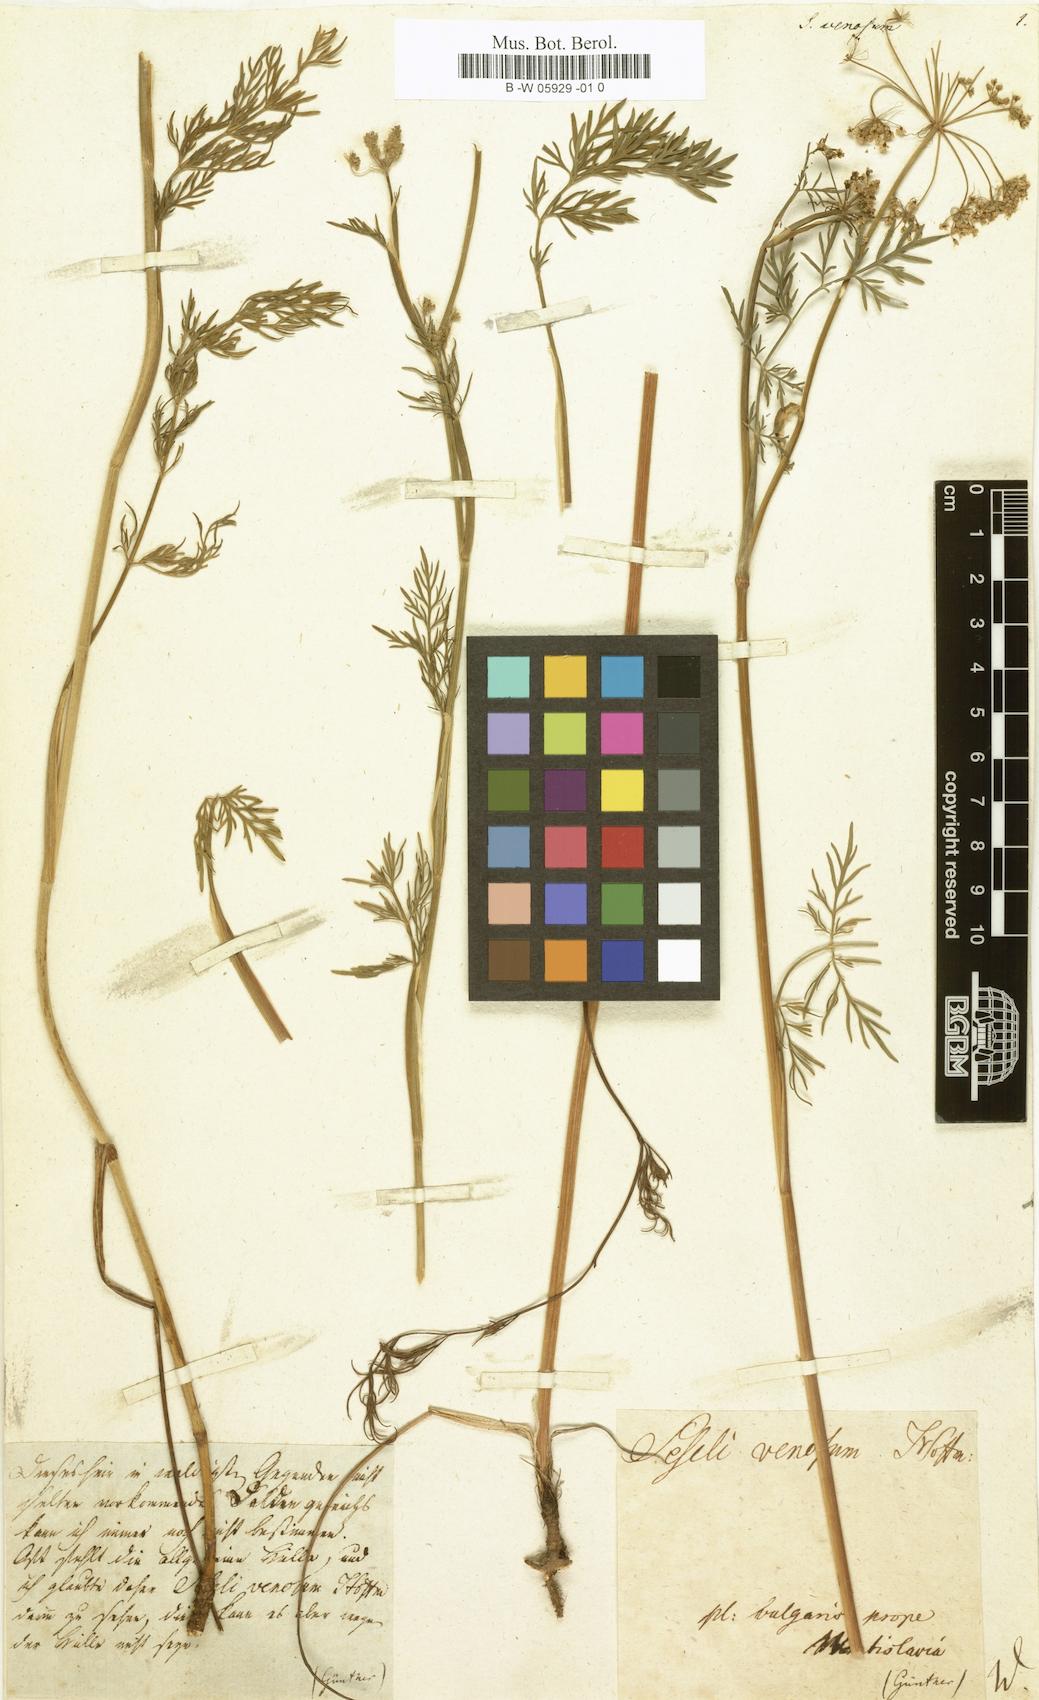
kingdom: Plantae
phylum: Tracheophyta
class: Magnoliopsida
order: Apiales
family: Apiaceae
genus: Kadenia
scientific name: Kadenia dubia
